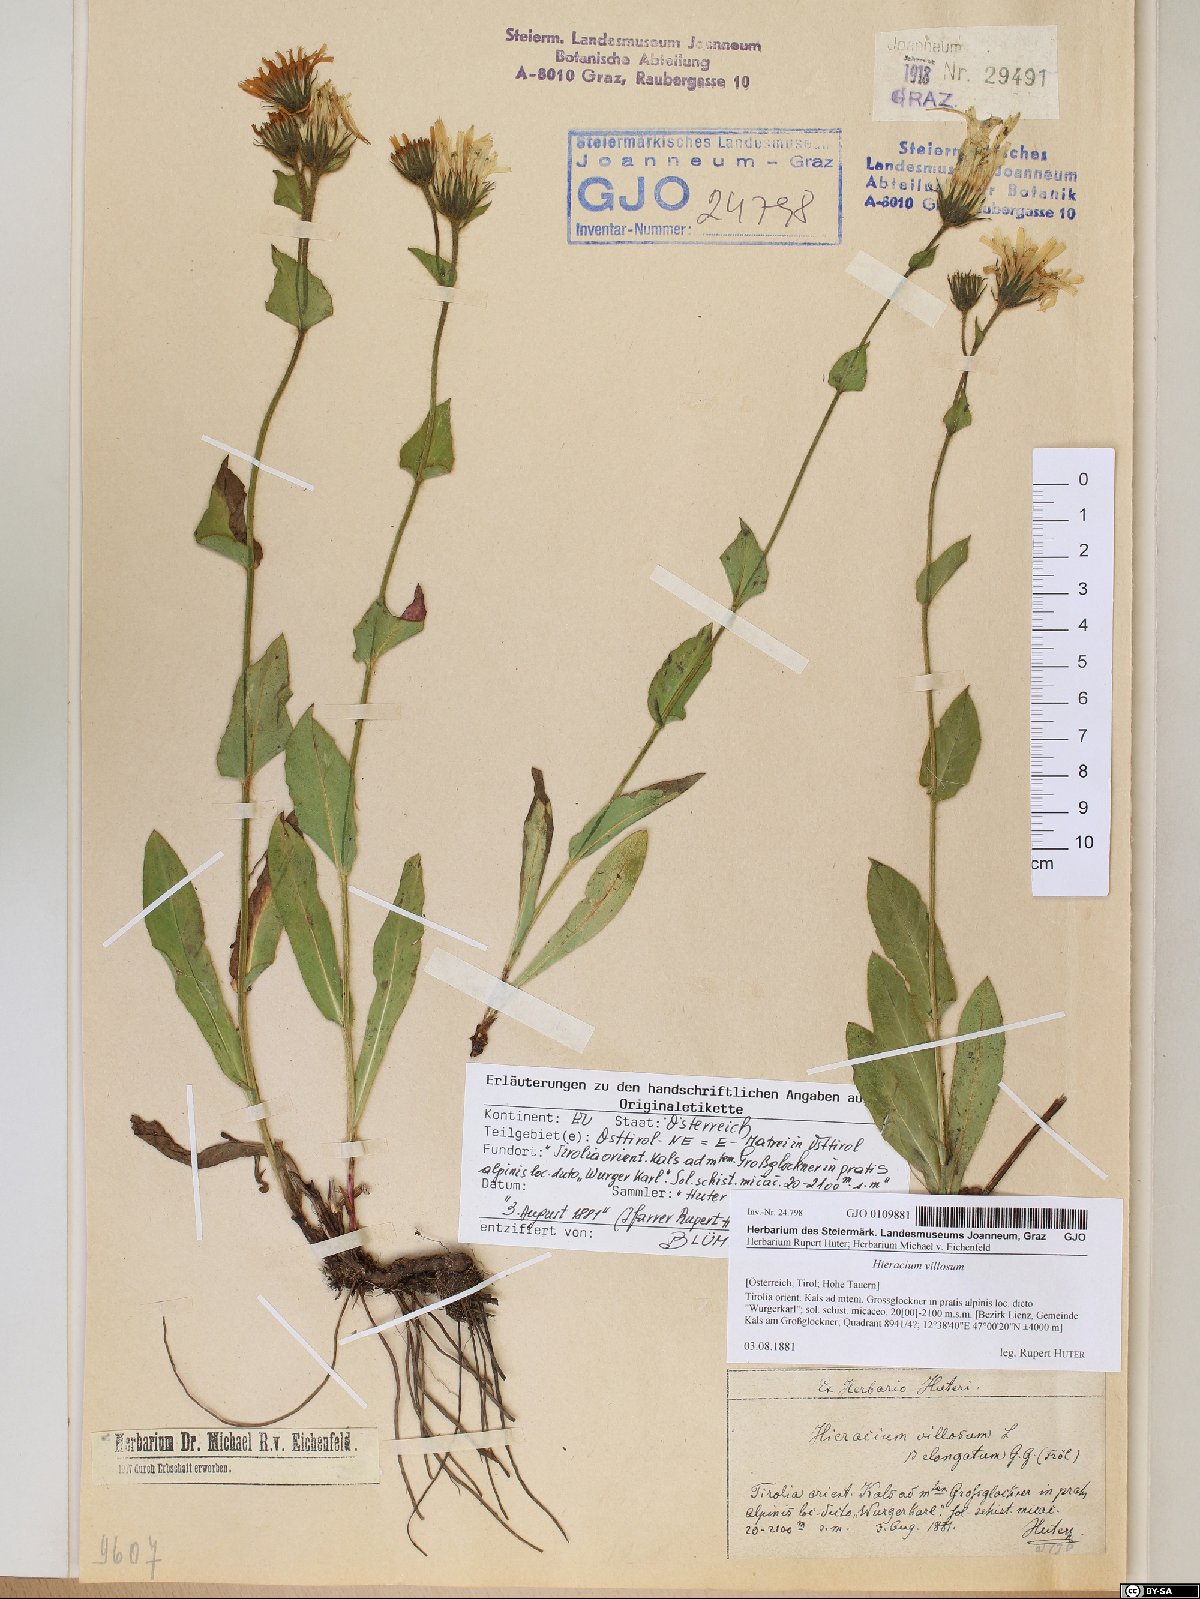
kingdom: Plantae
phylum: Tracheophyta
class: Magnoliopsida
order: Asterales
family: Asteraceae
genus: Hieracium
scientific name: Hieracium villosum
